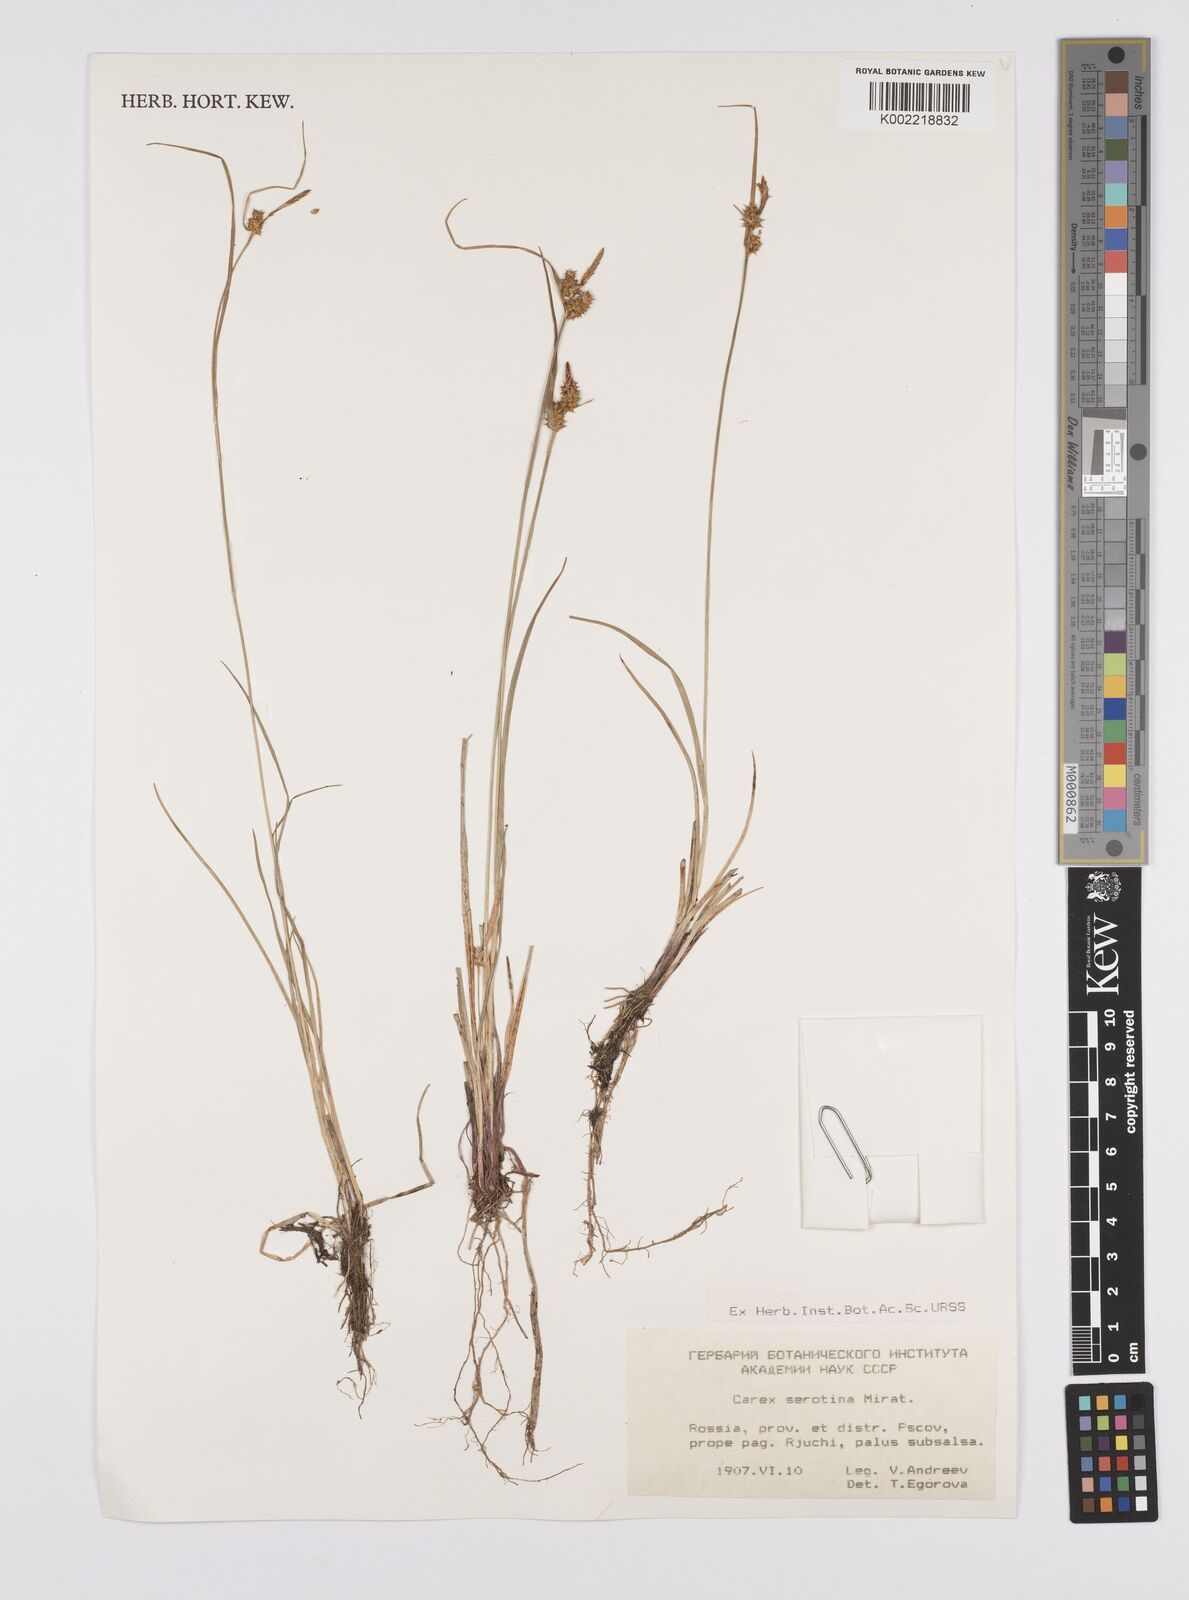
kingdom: Plantae
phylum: Tracheophyta
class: Liliopsida
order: Poales
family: Cyperaceae
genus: Carex
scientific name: Carex pilulifera
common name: Pill sedge
